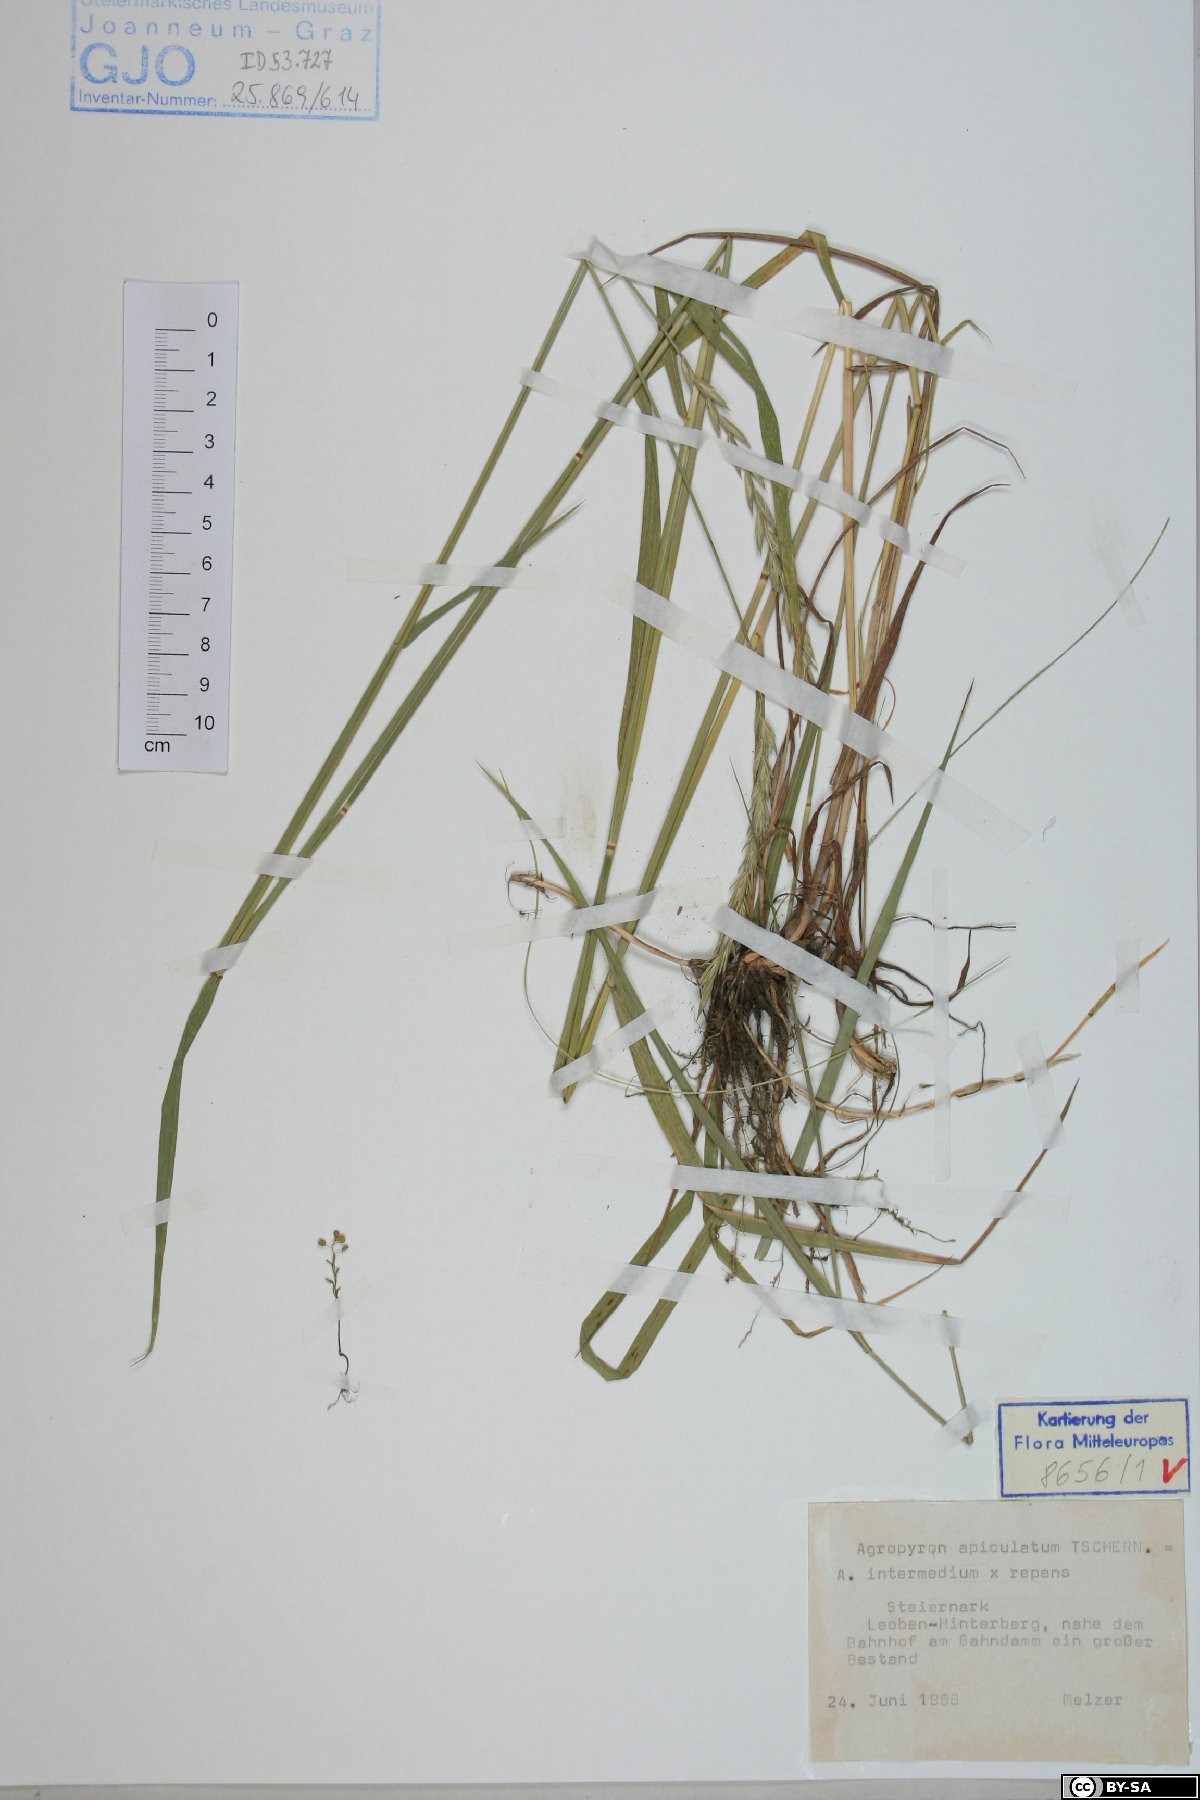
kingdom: Plantae
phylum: Tracheophyta
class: Liliopsida
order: Poales
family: Poaceae
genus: Elymus
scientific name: Elymus apiculatus
